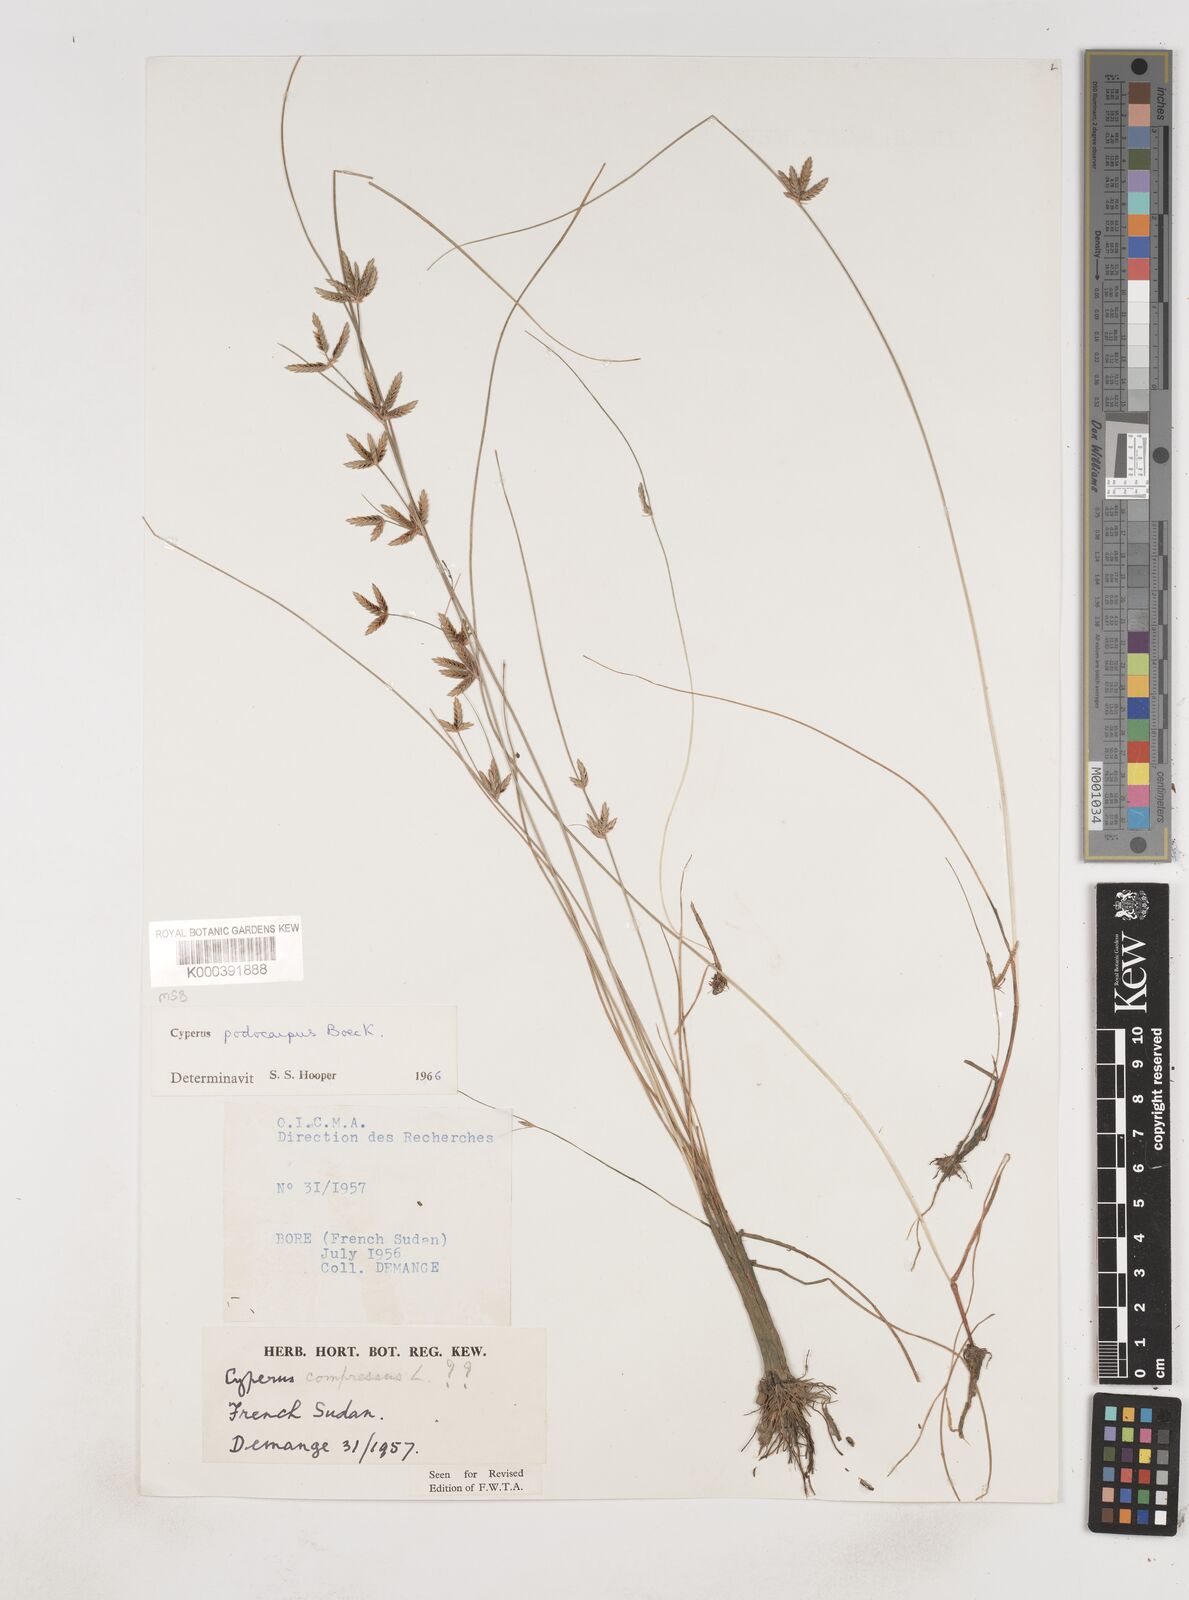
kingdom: Plantae
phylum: Tracheophyta
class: Liliopsida
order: Poales
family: Cyperaceae
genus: Cyperus
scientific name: Cyperus podocarpus
